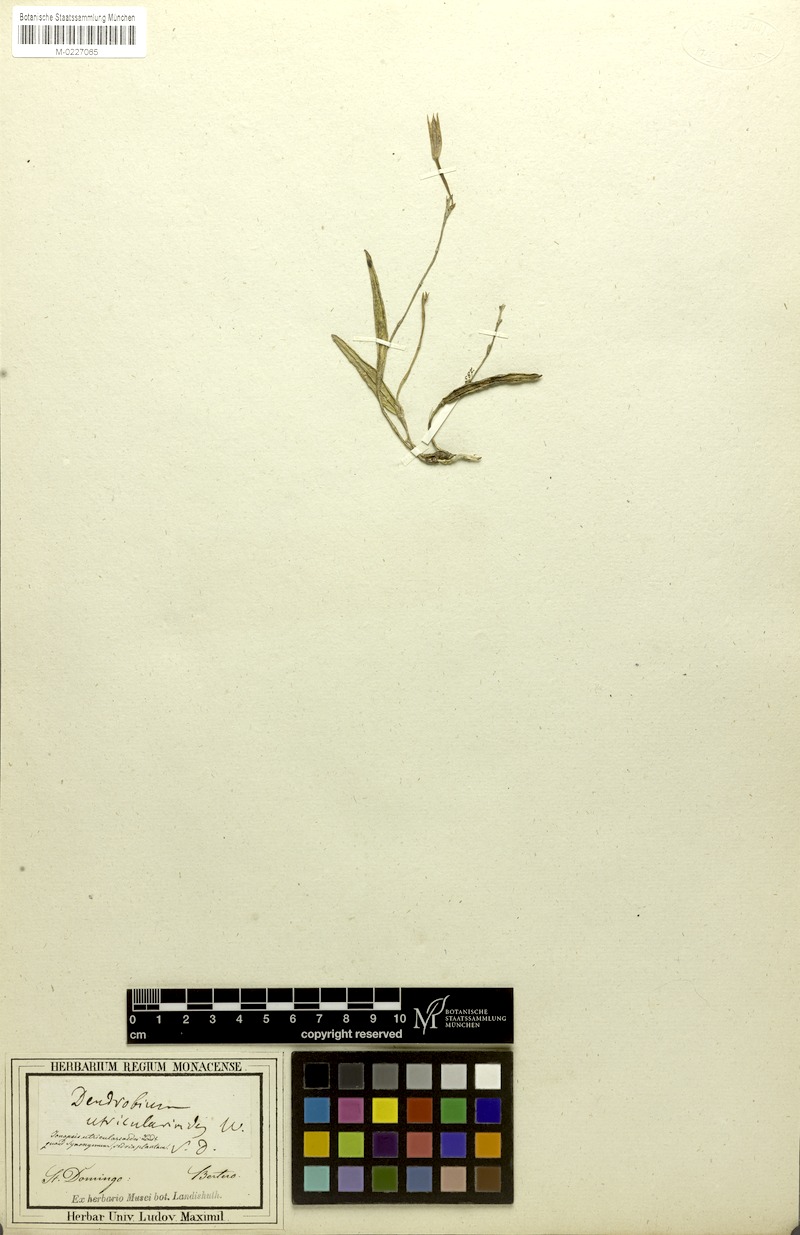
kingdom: Plantae
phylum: Tracheophyta
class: Liliopsida
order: Asparagales
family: Orchidaceae
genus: Ionopsis
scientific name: Ionopsis utricularioides
